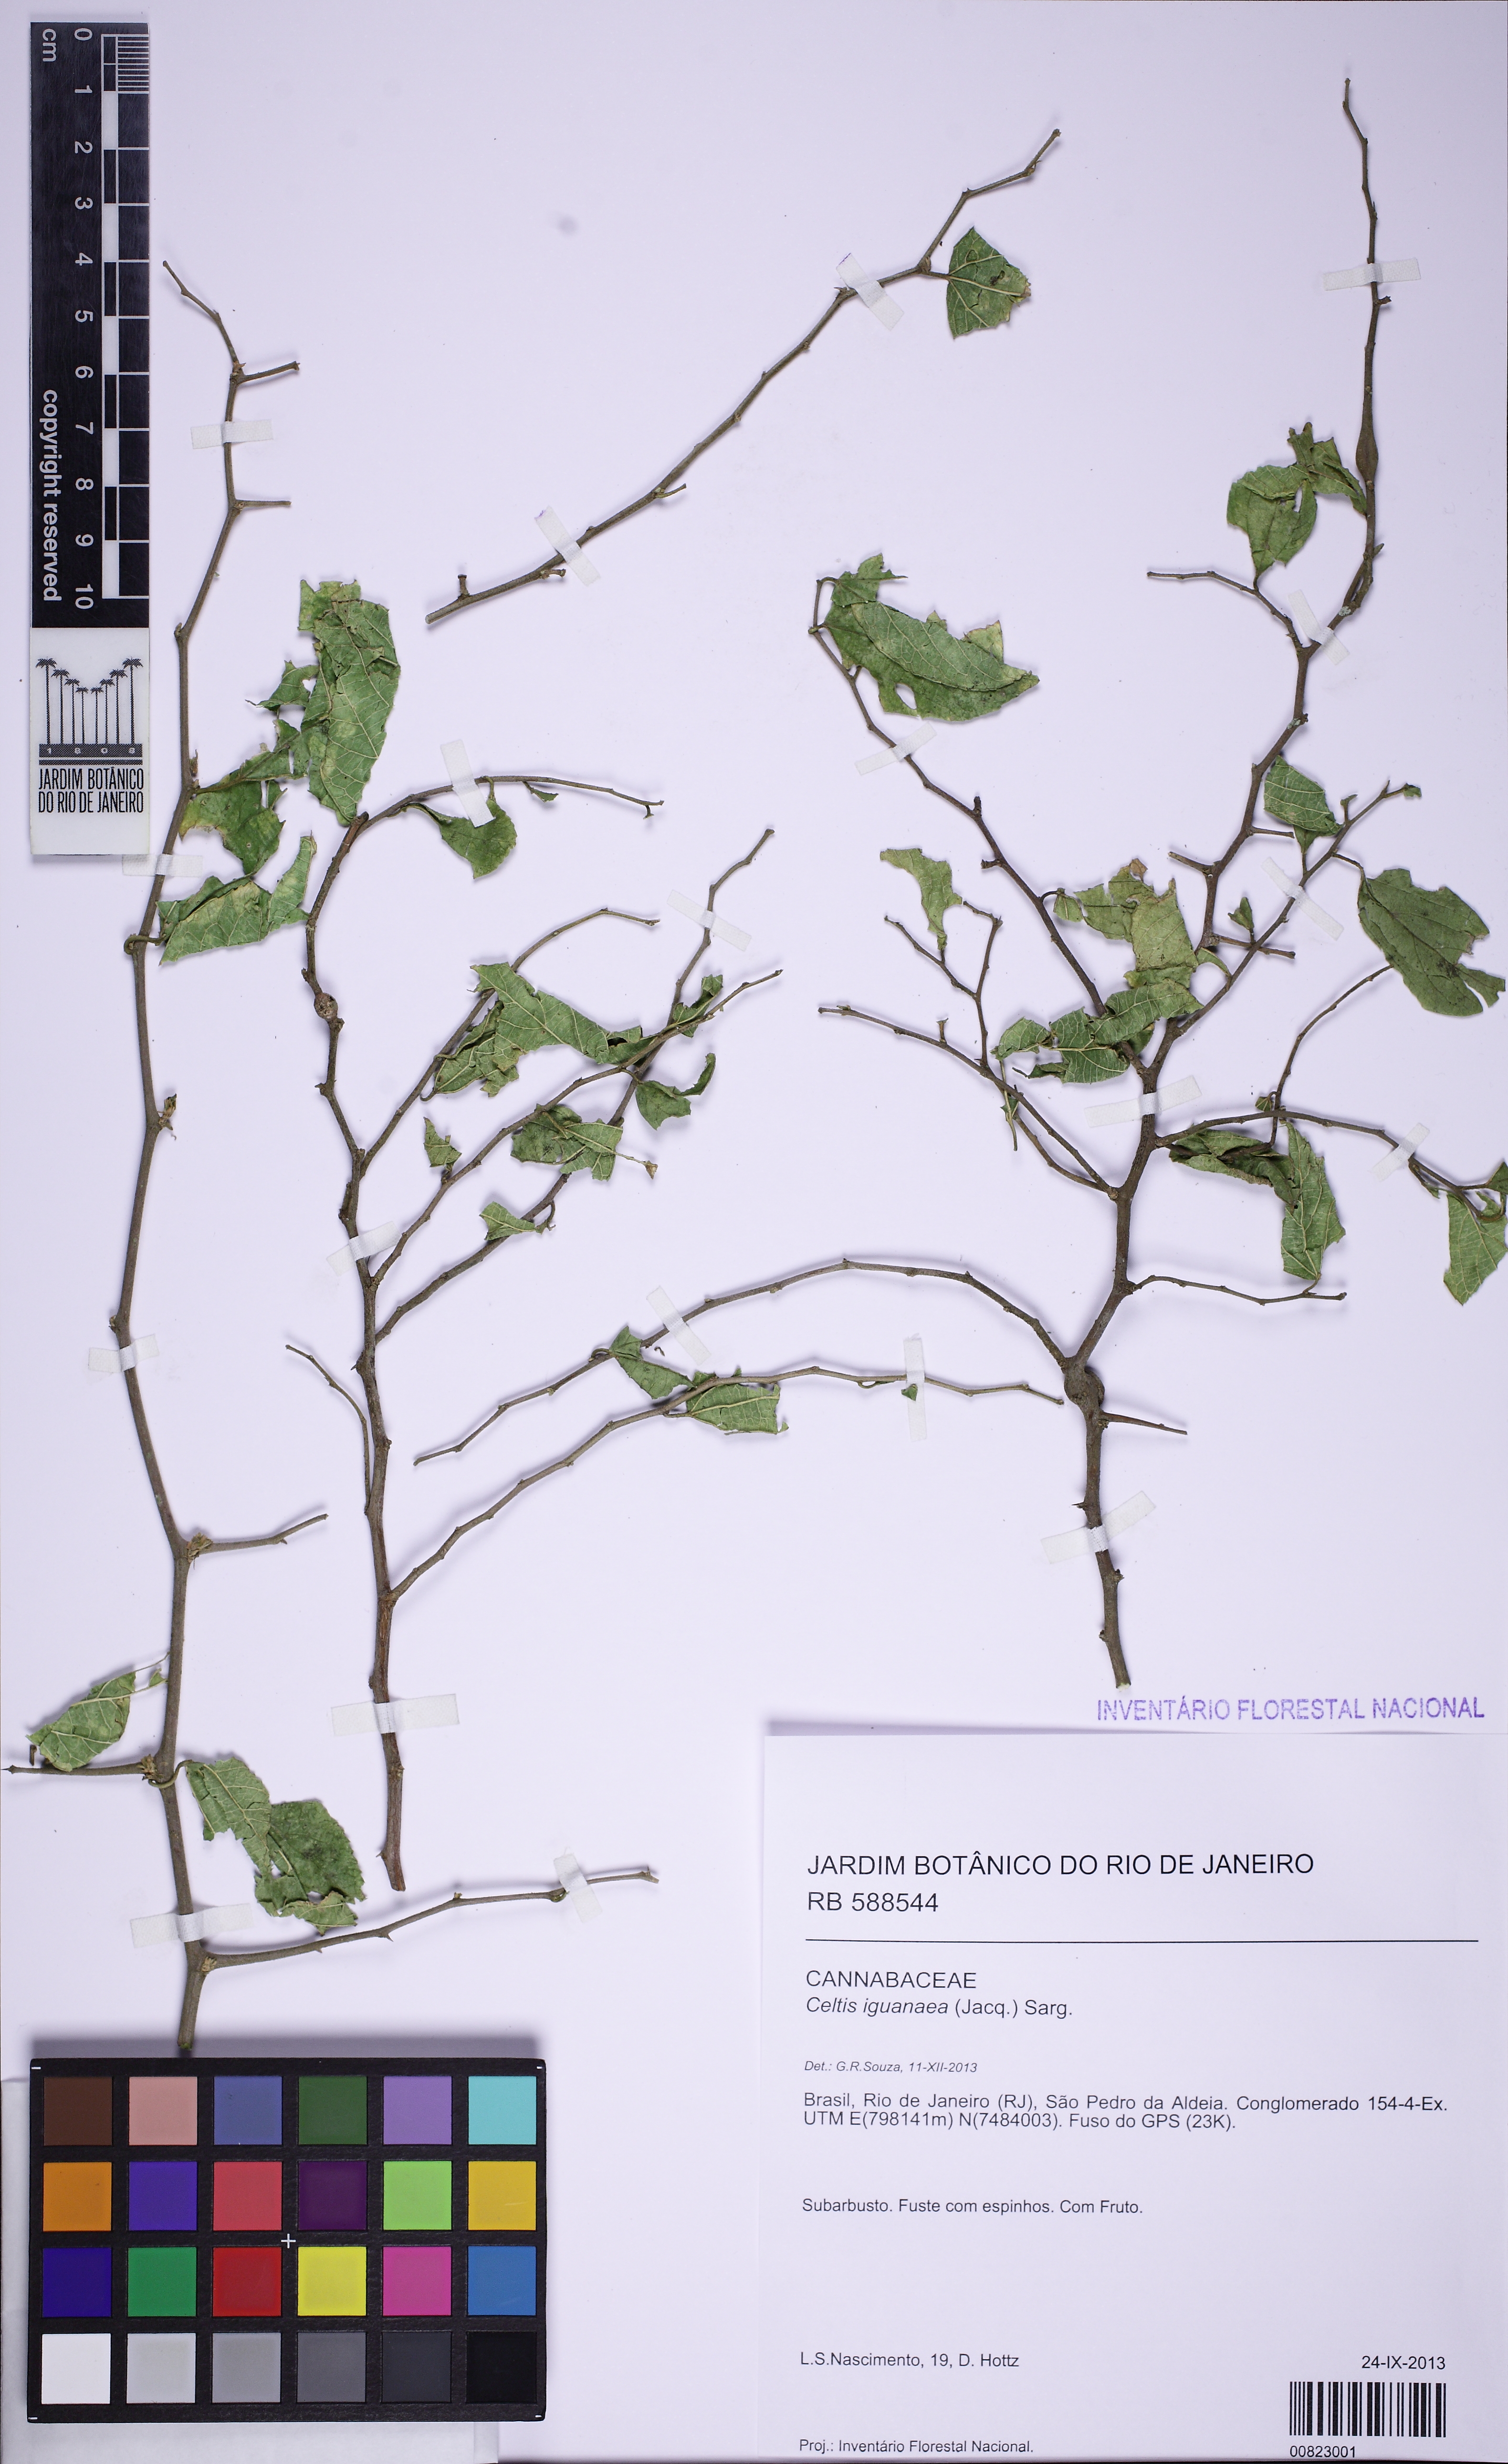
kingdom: Plantae
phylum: Tracheophyta
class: Magnoliopsida
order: Rosales
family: Cannabaceae
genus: Celtis
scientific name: Celtis iguanaea
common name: Iguana hackberry
